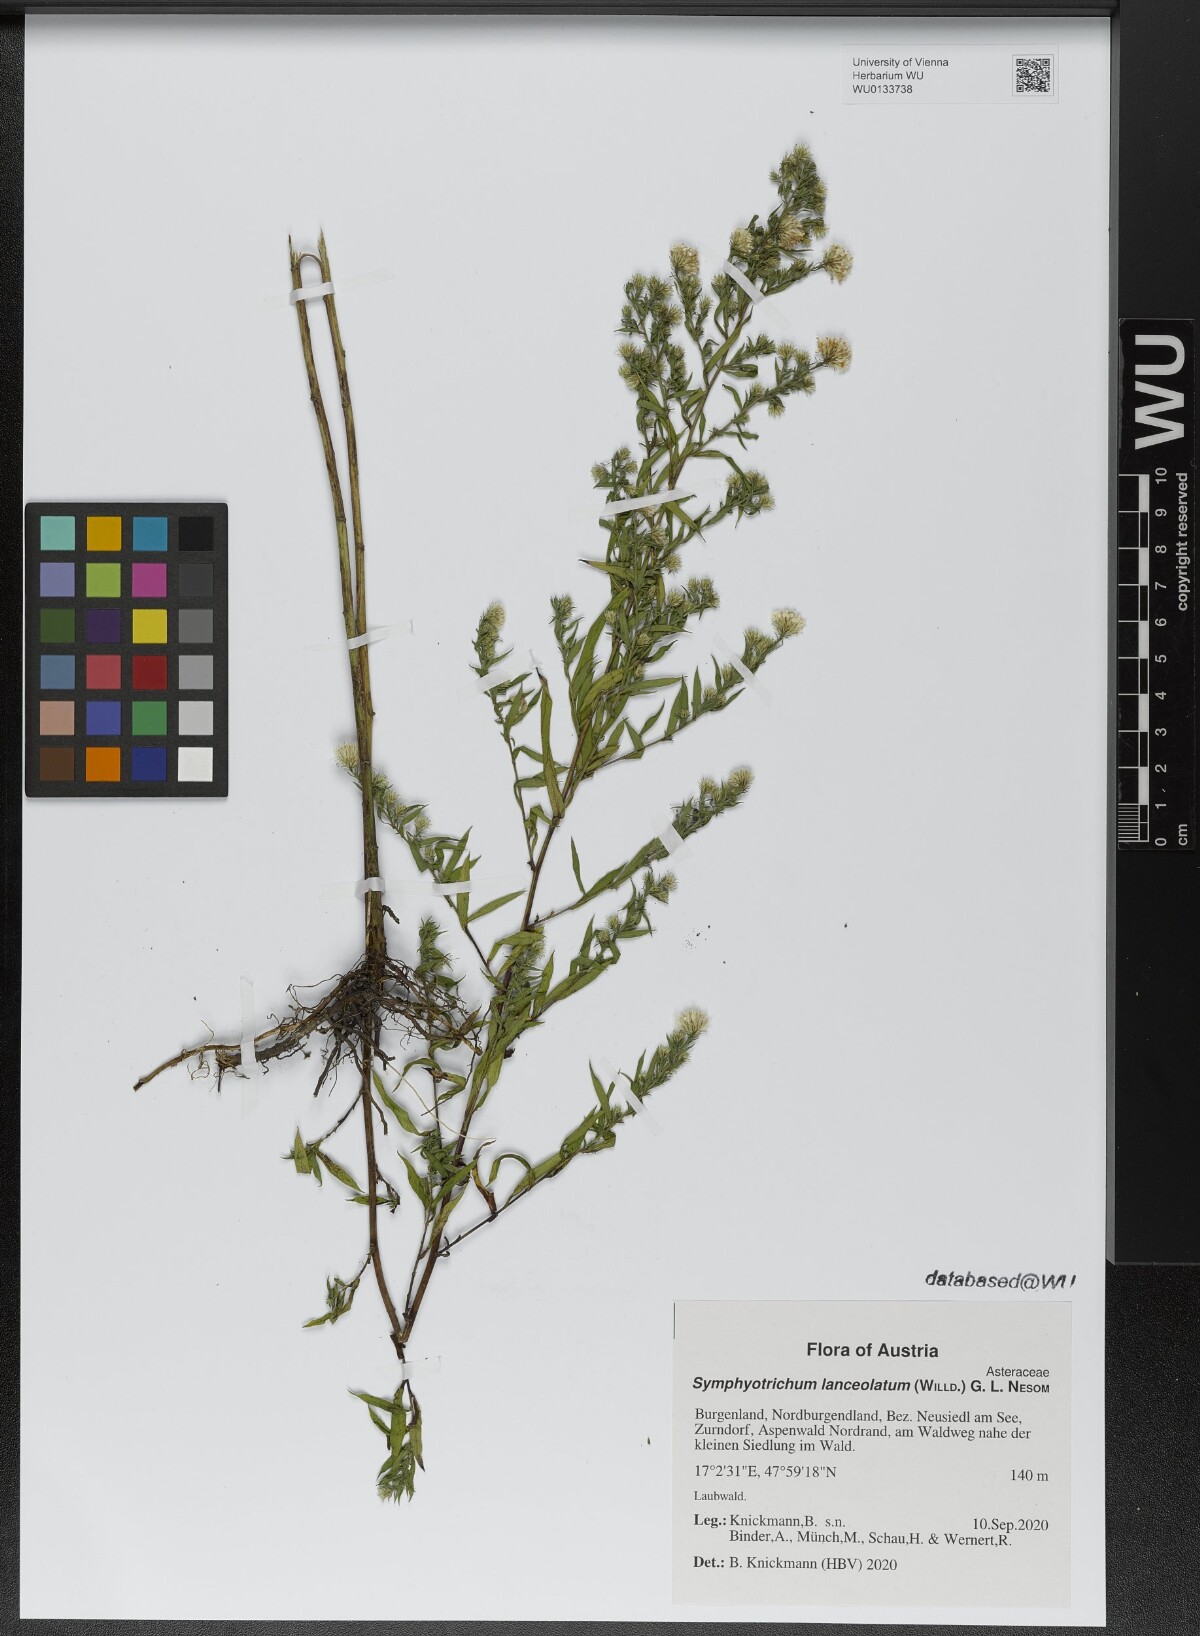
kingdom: Plantae
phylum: Tracheophyta
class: Magnoliopsida
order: Asterales
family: Asteraceae
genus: Symphyotrichum
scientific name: Symphyotrichum lanceolatum
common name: Panicled aster
